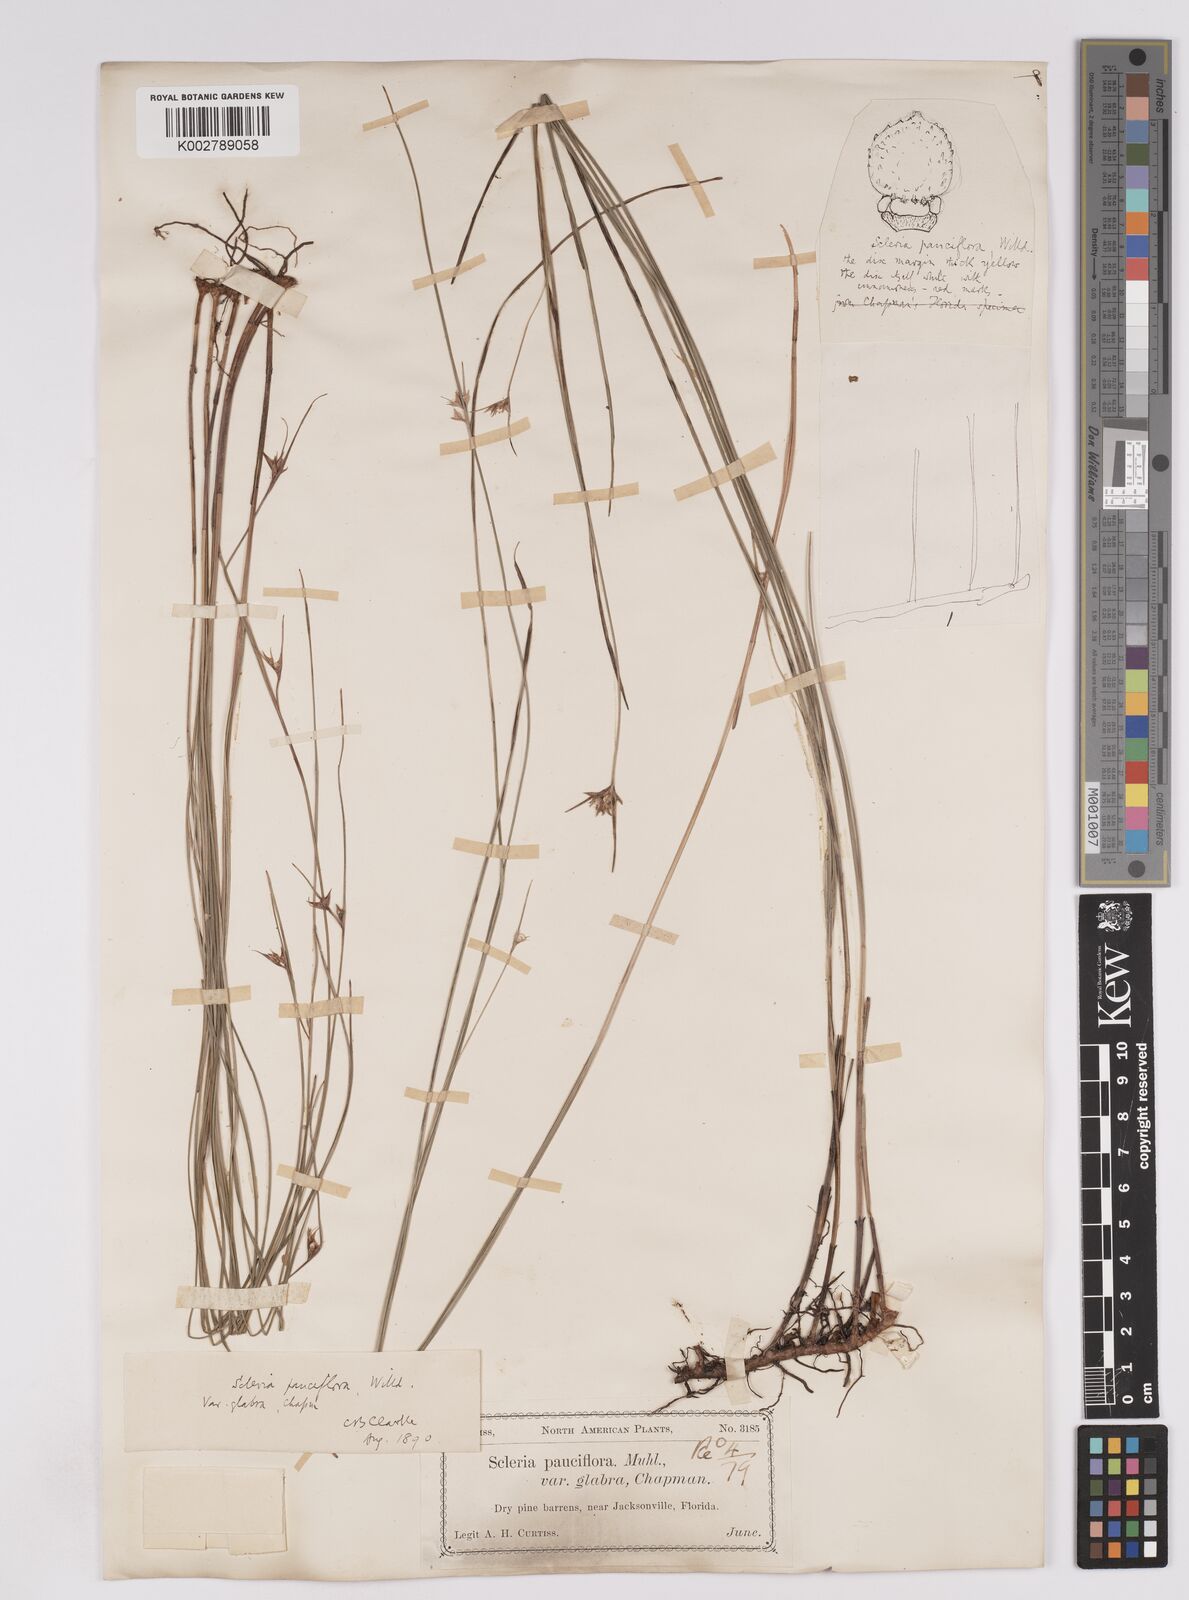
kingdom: Plantae
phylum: Tracheophyta
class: Liliopsida
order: Poales
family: Cyperaceae
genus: Scleria
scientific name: Scleria ciliata
